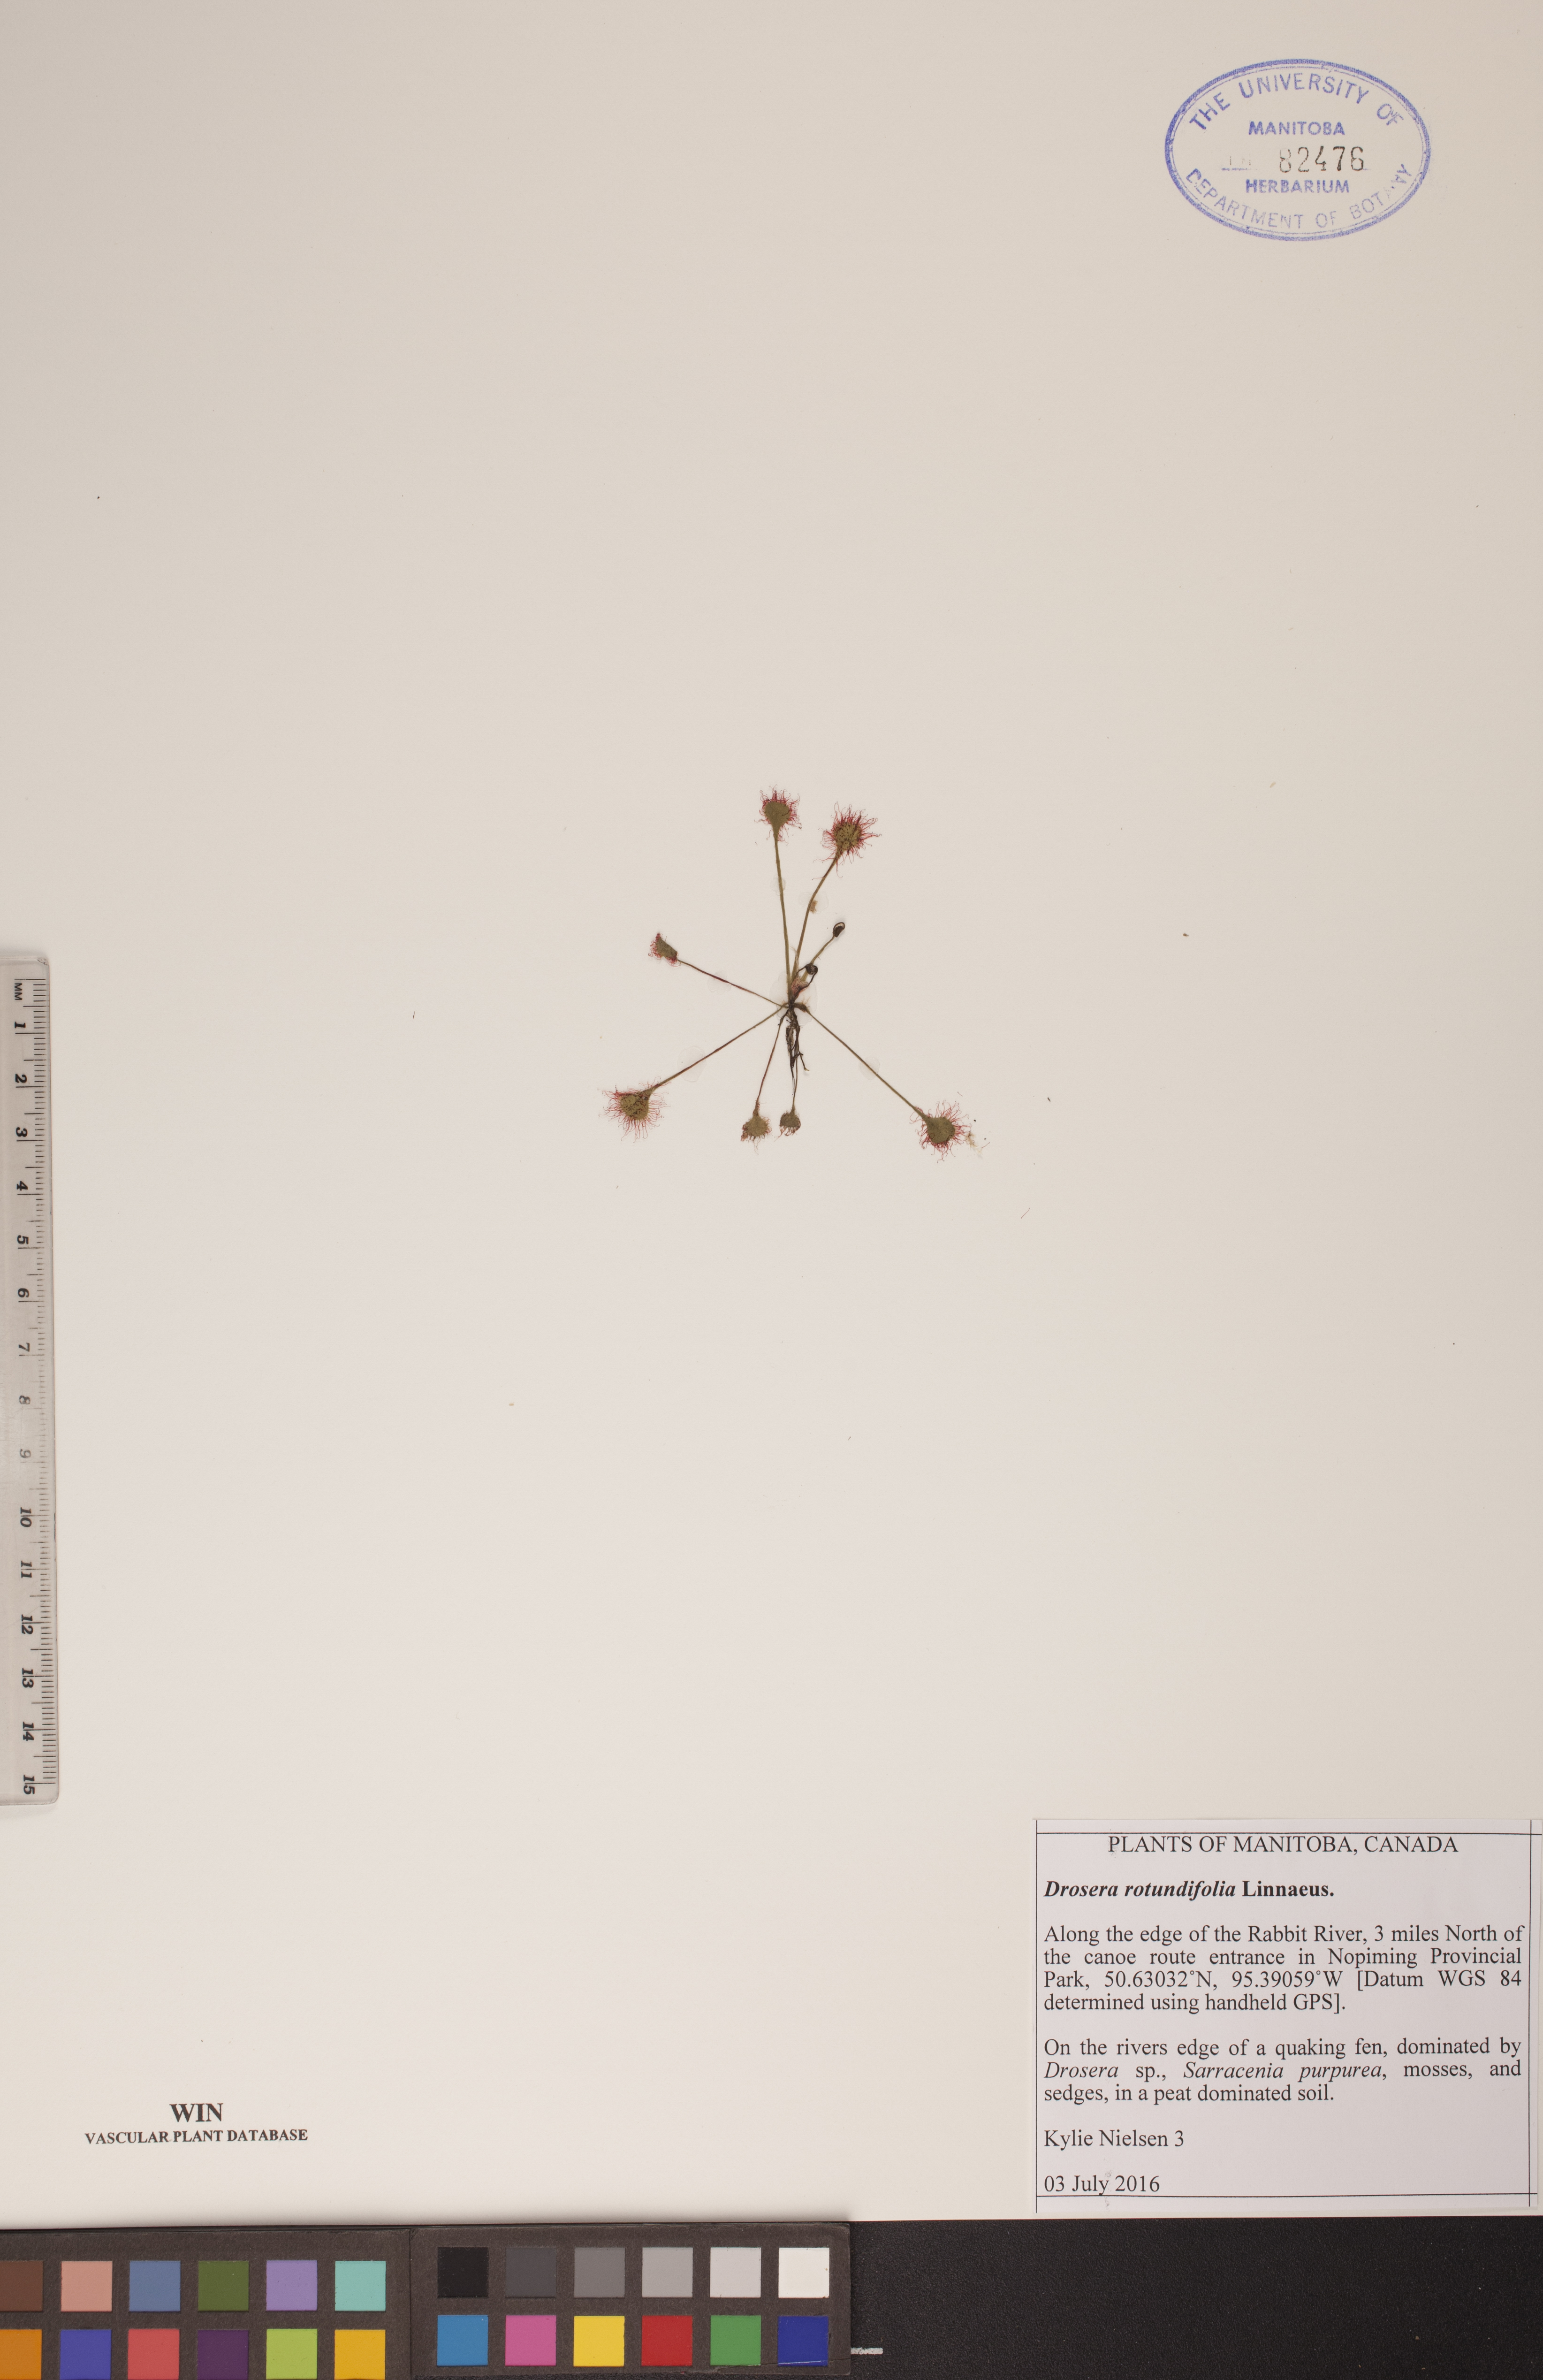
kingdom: Plantae
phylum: Tracheophyta
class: Magnoliopsida
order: Caryophyllales
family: Droseraceae
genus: Drosera
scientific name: Drosera rotundifolia
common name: Round-leaved sundew
